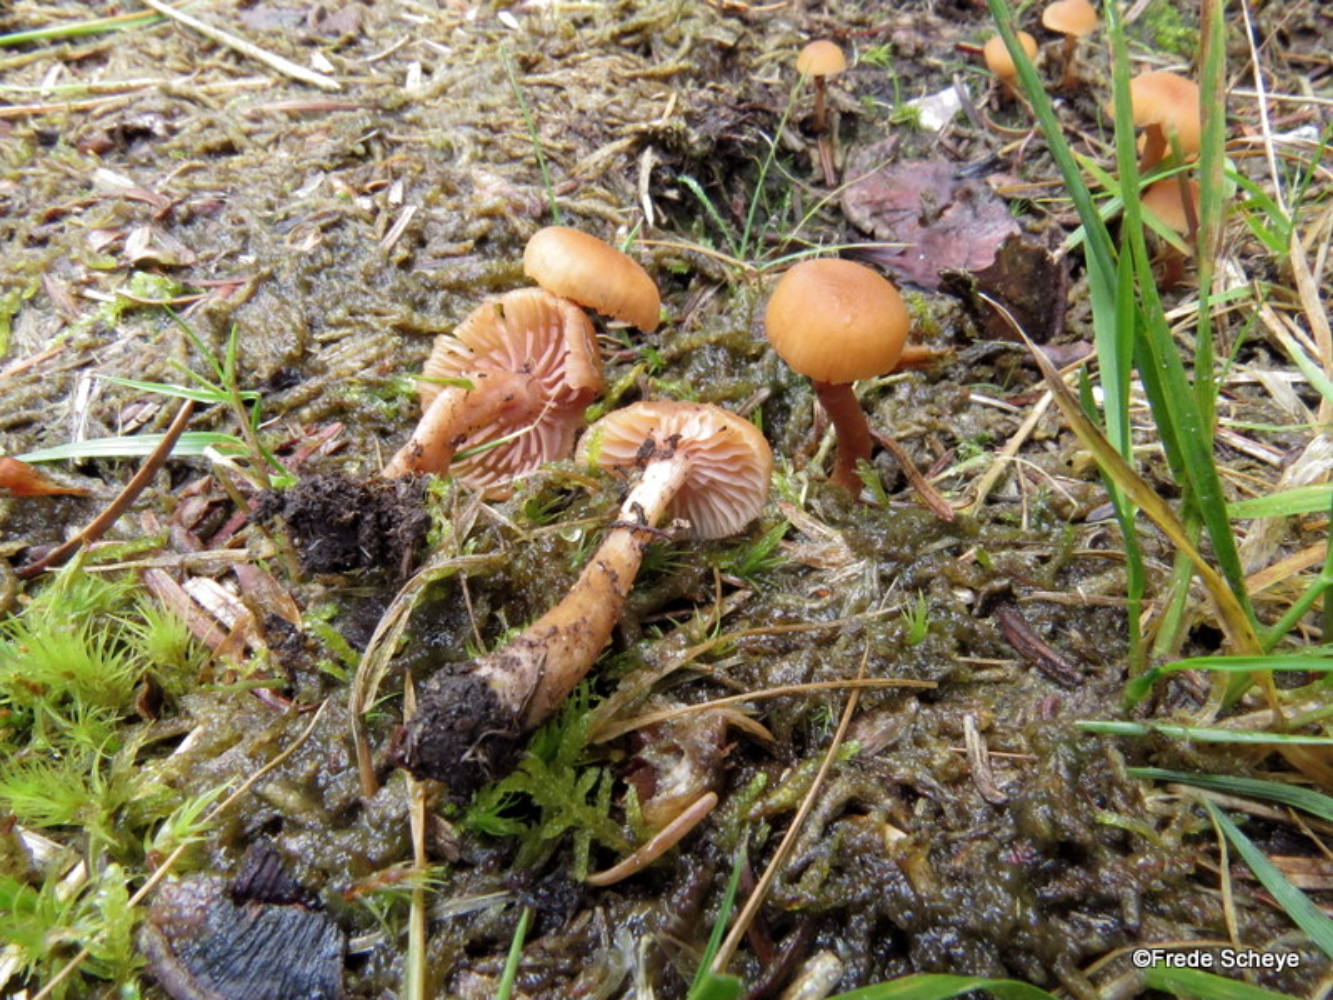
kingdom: Fungi
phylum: Basidiomycota
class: Agaricomycetes
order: Agaricales
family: Hydnangiaceae
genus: Laccaria
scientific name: Laccaria laccata
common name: rød ametysthat
